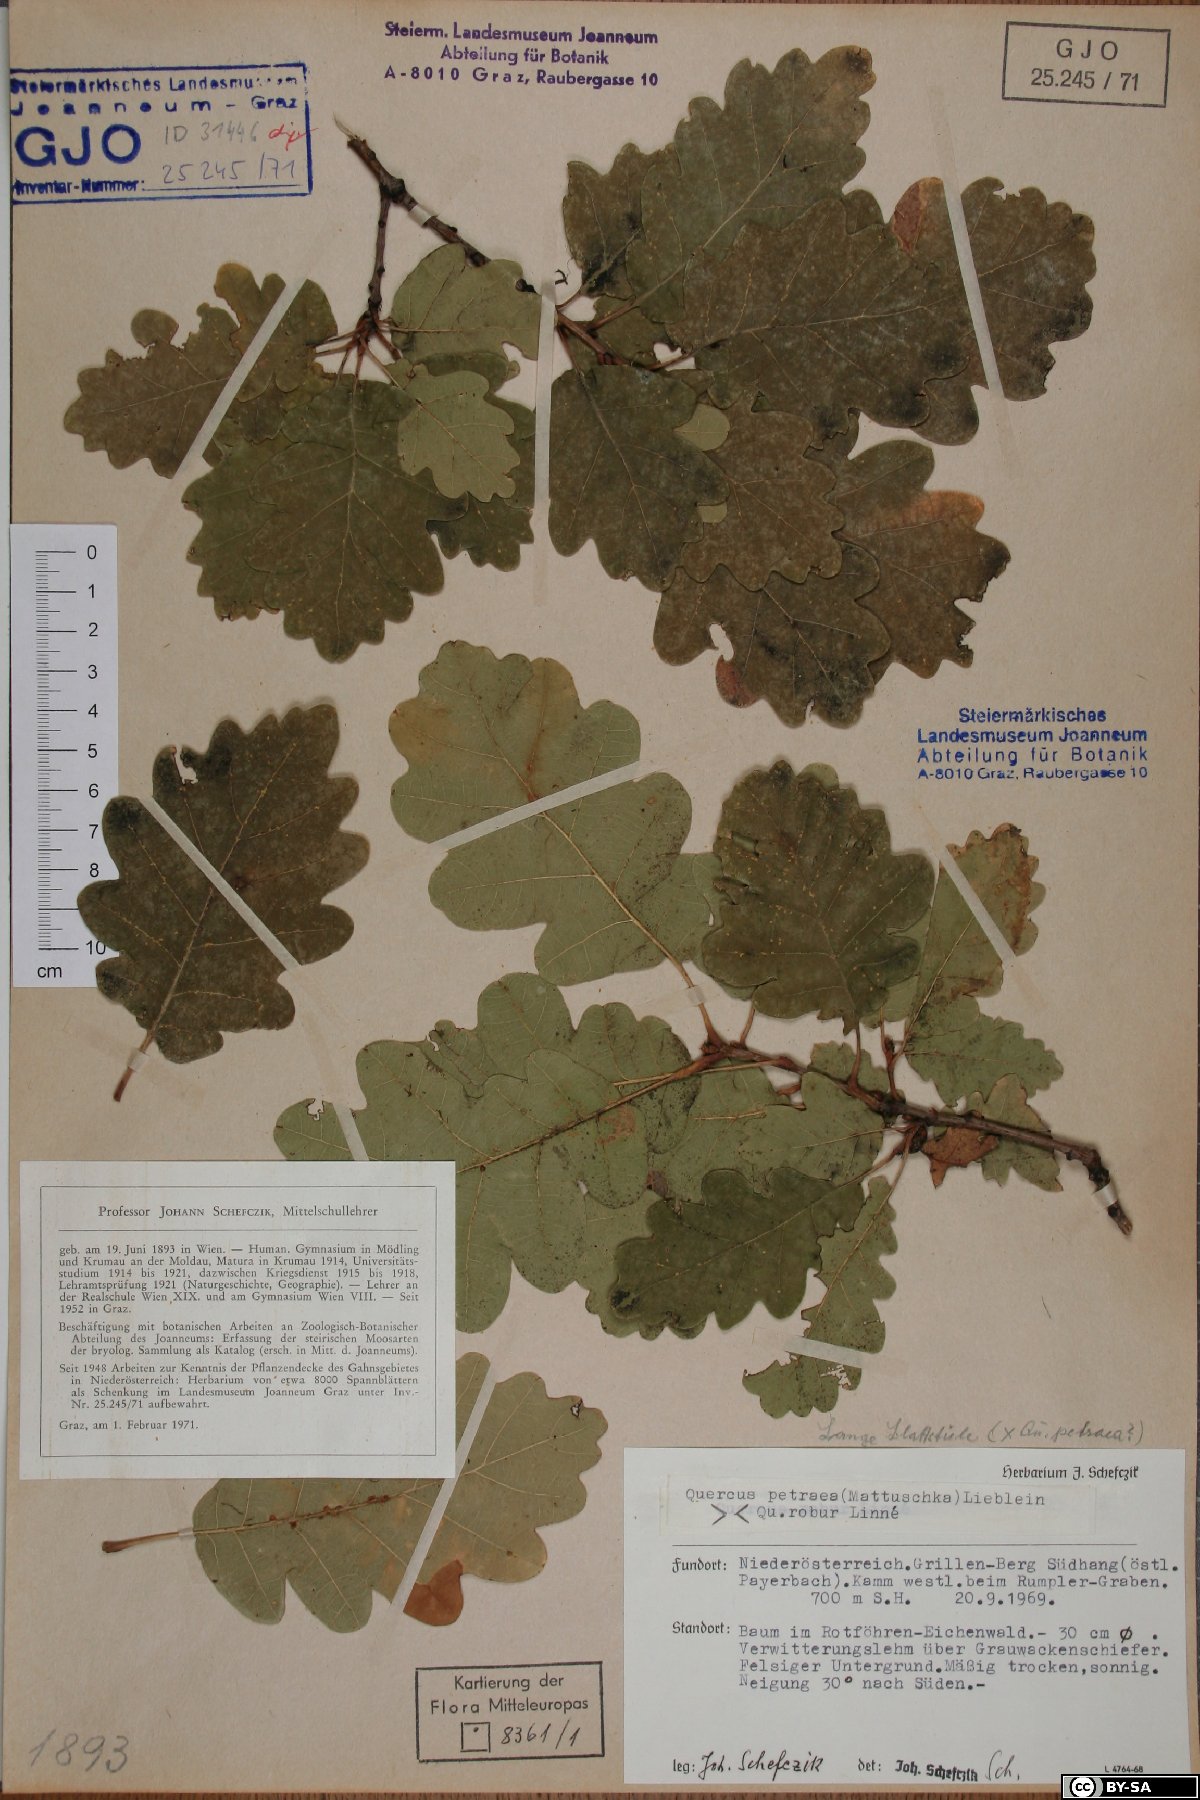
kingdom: Plantae
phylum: Tracheophyta
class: Magnoliopsida
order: Fagales
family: Fagaceae
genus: Quercus
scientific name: Quercus petraea
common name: Sessile oak
